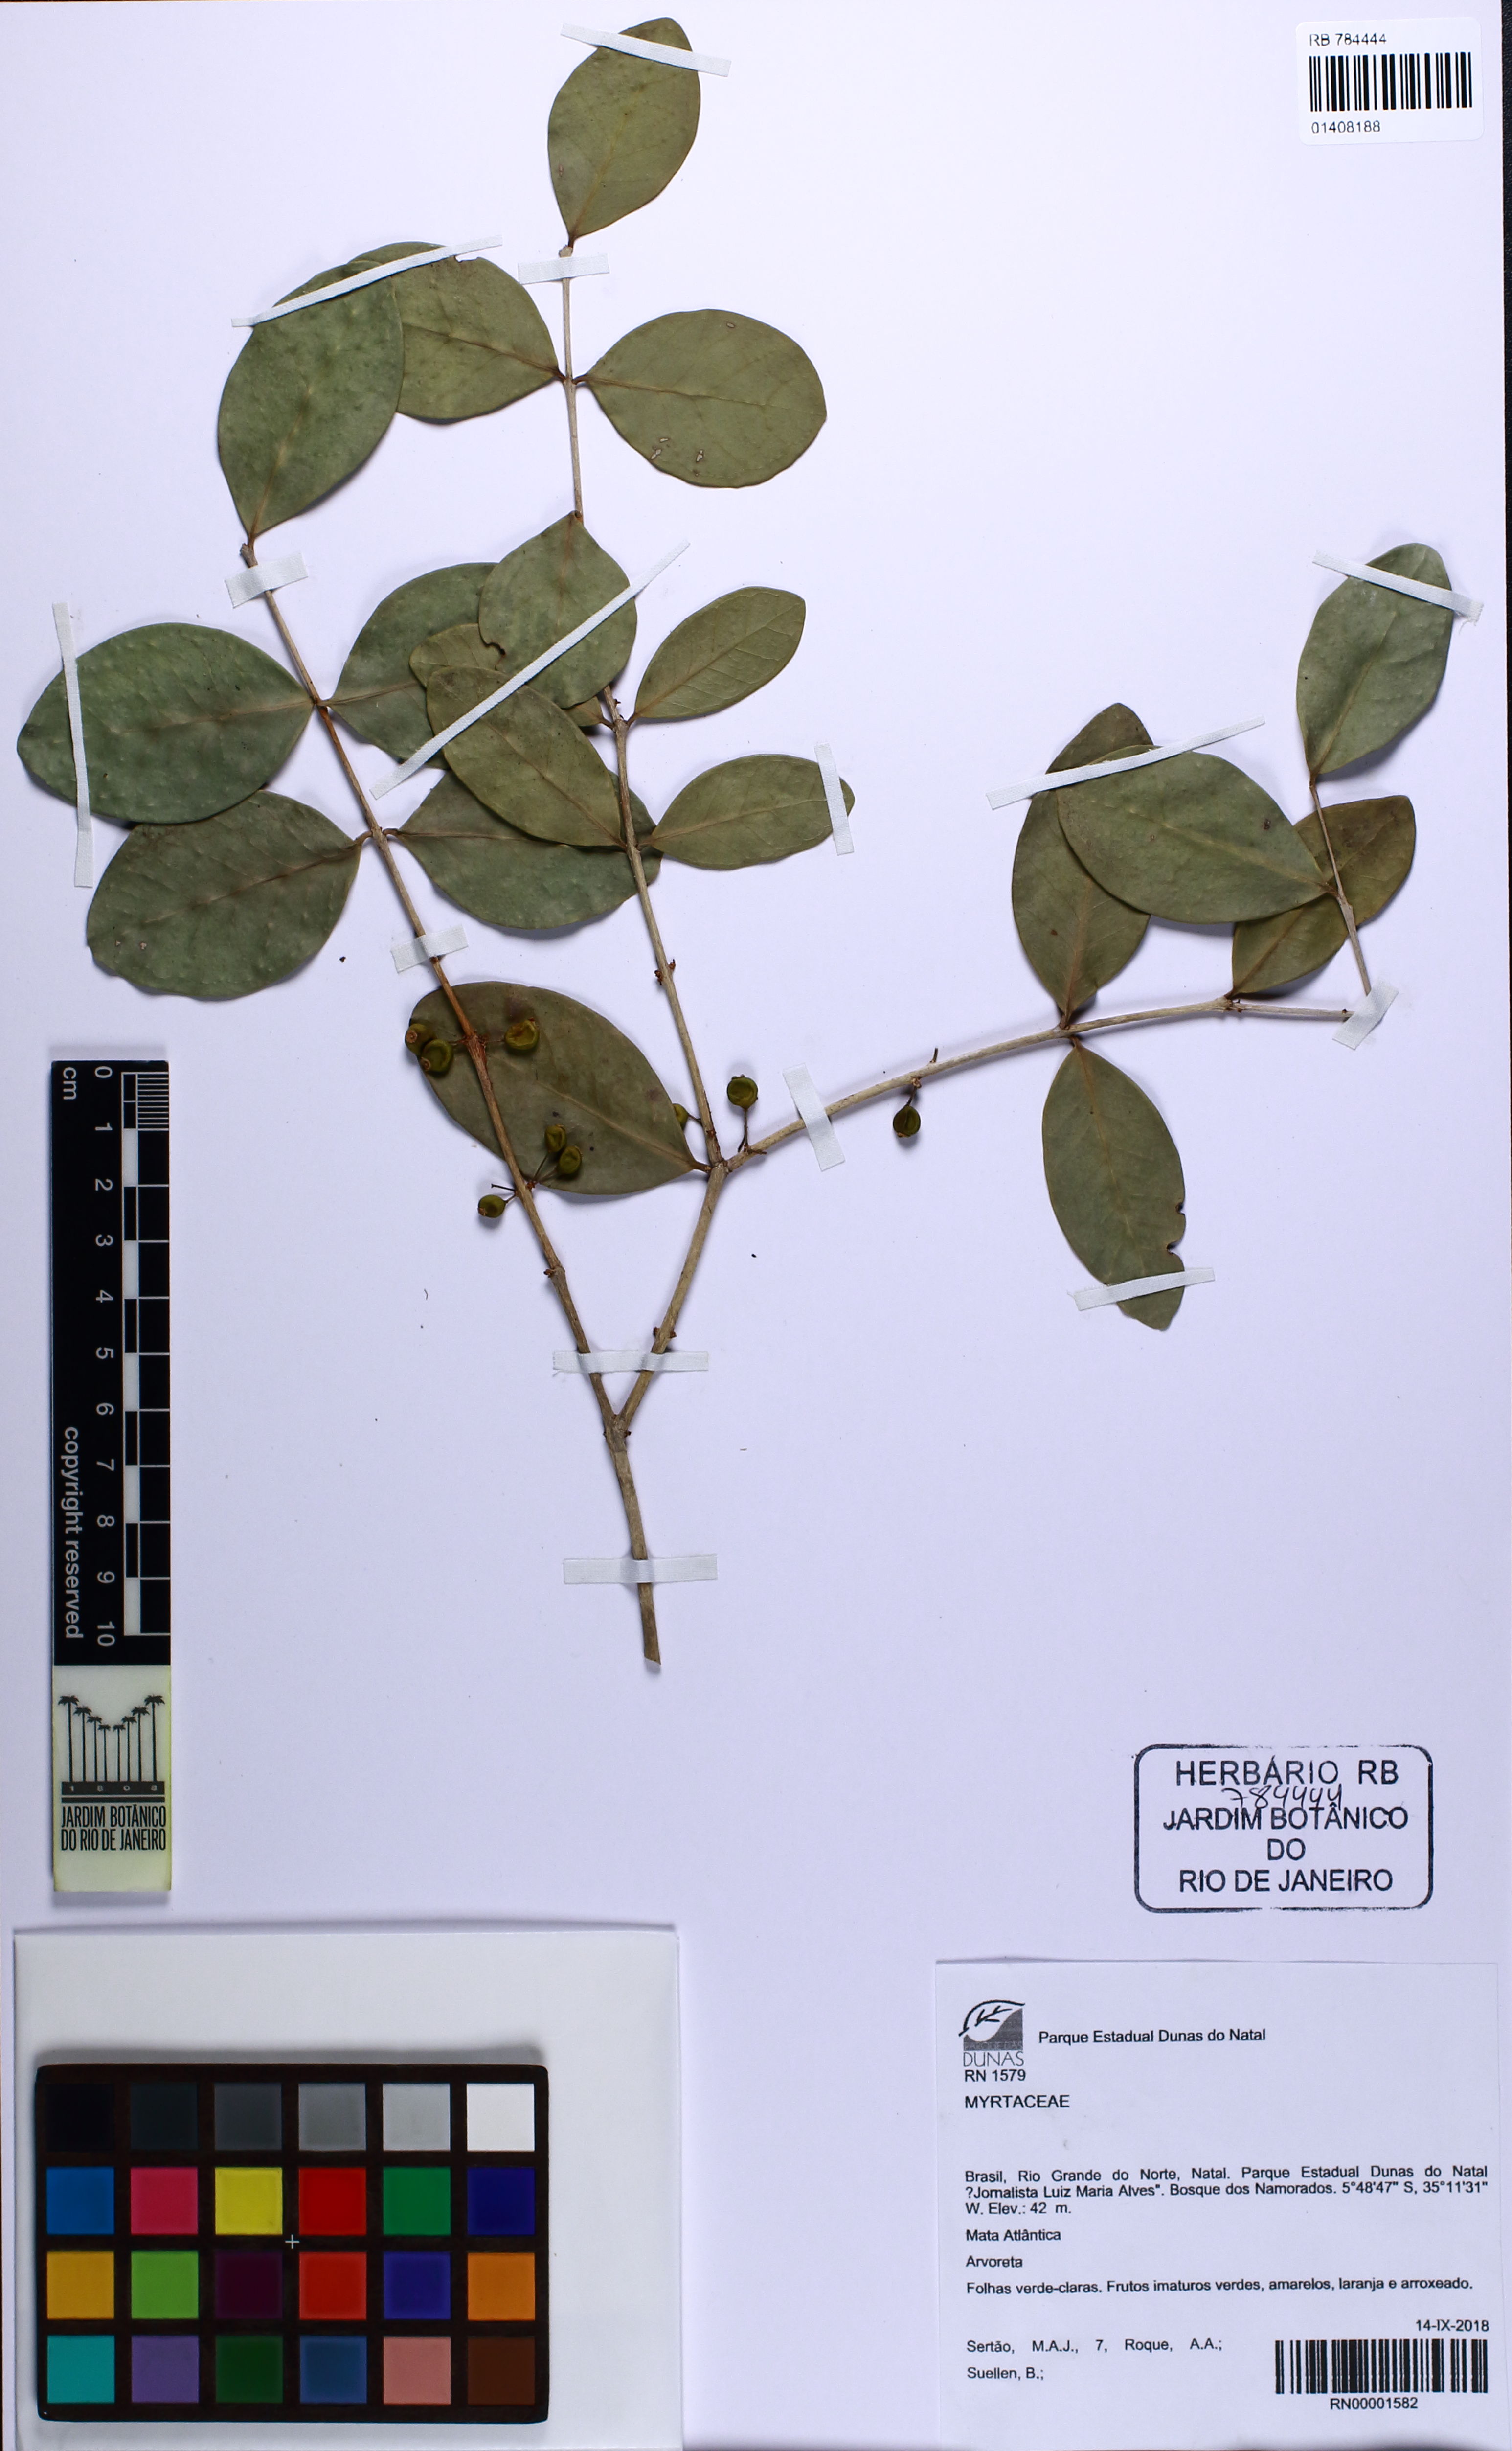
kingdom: Plantae
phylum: Tracheophyta
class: Magnoliopsida
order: Myrtales
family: Myrtaceae
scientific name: Myrtaceae
